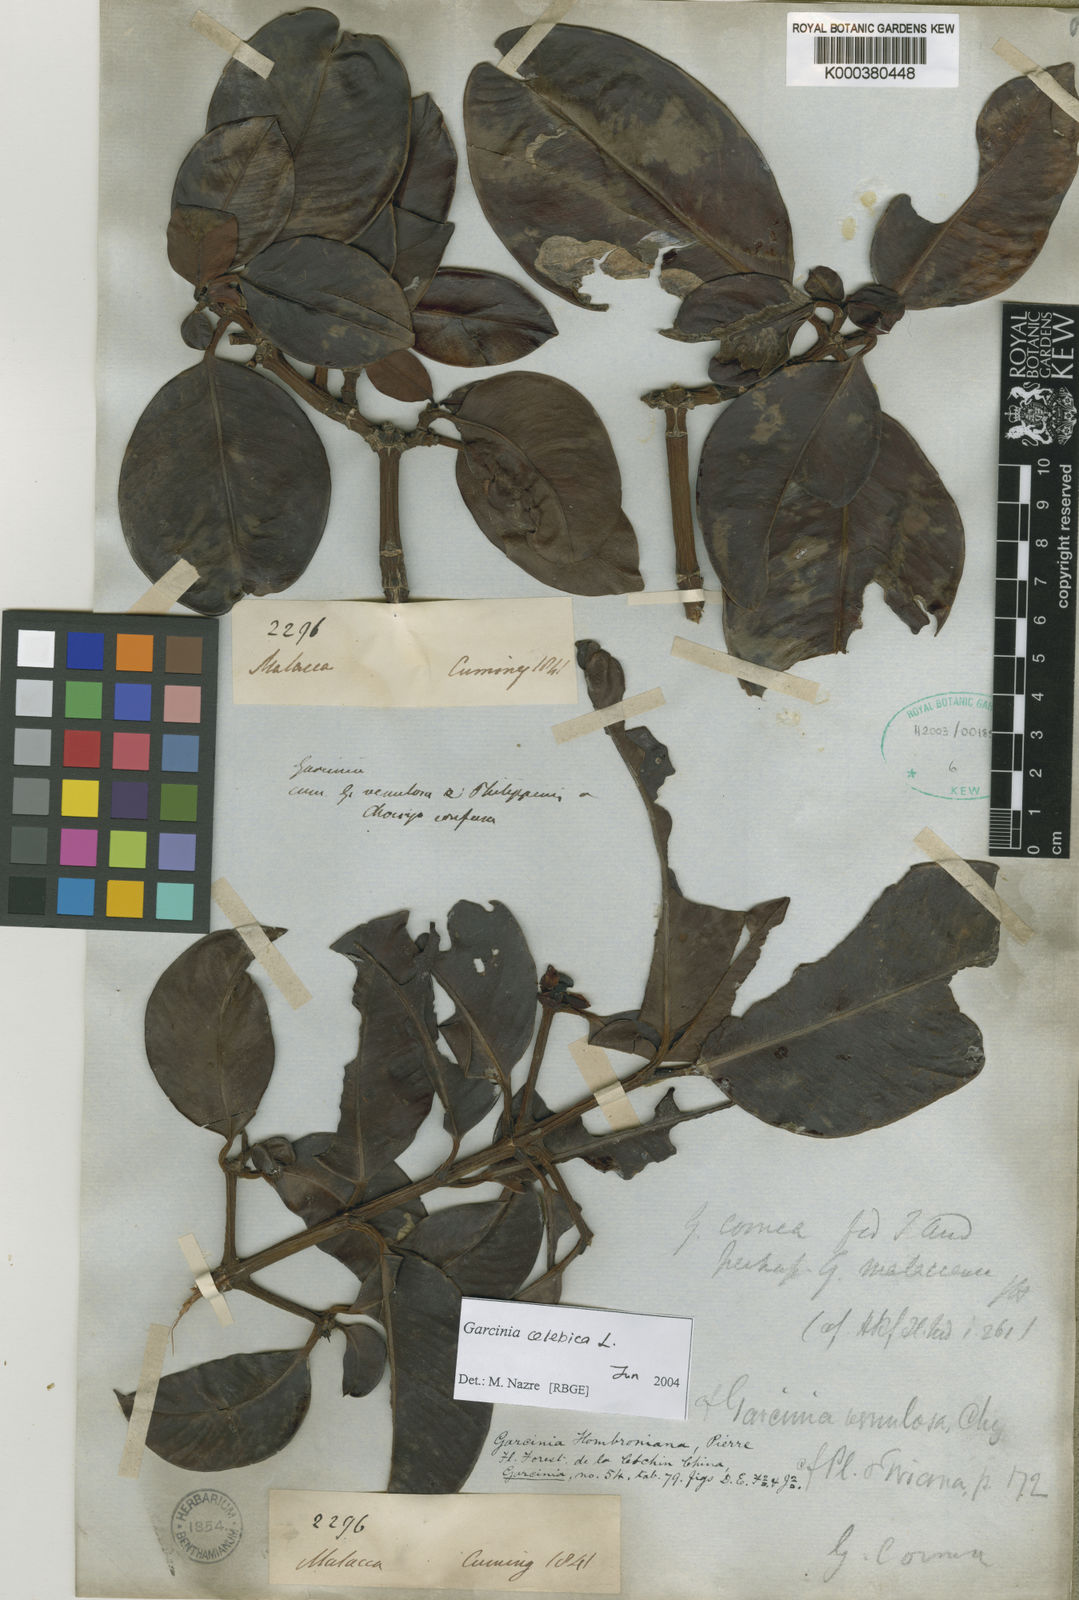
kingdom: Plantae
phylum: Tracheophyta
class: Magnoliopsida
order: Malpighiales
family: Clusiaceae
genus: Garcinia
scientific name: Garcinia celebica
